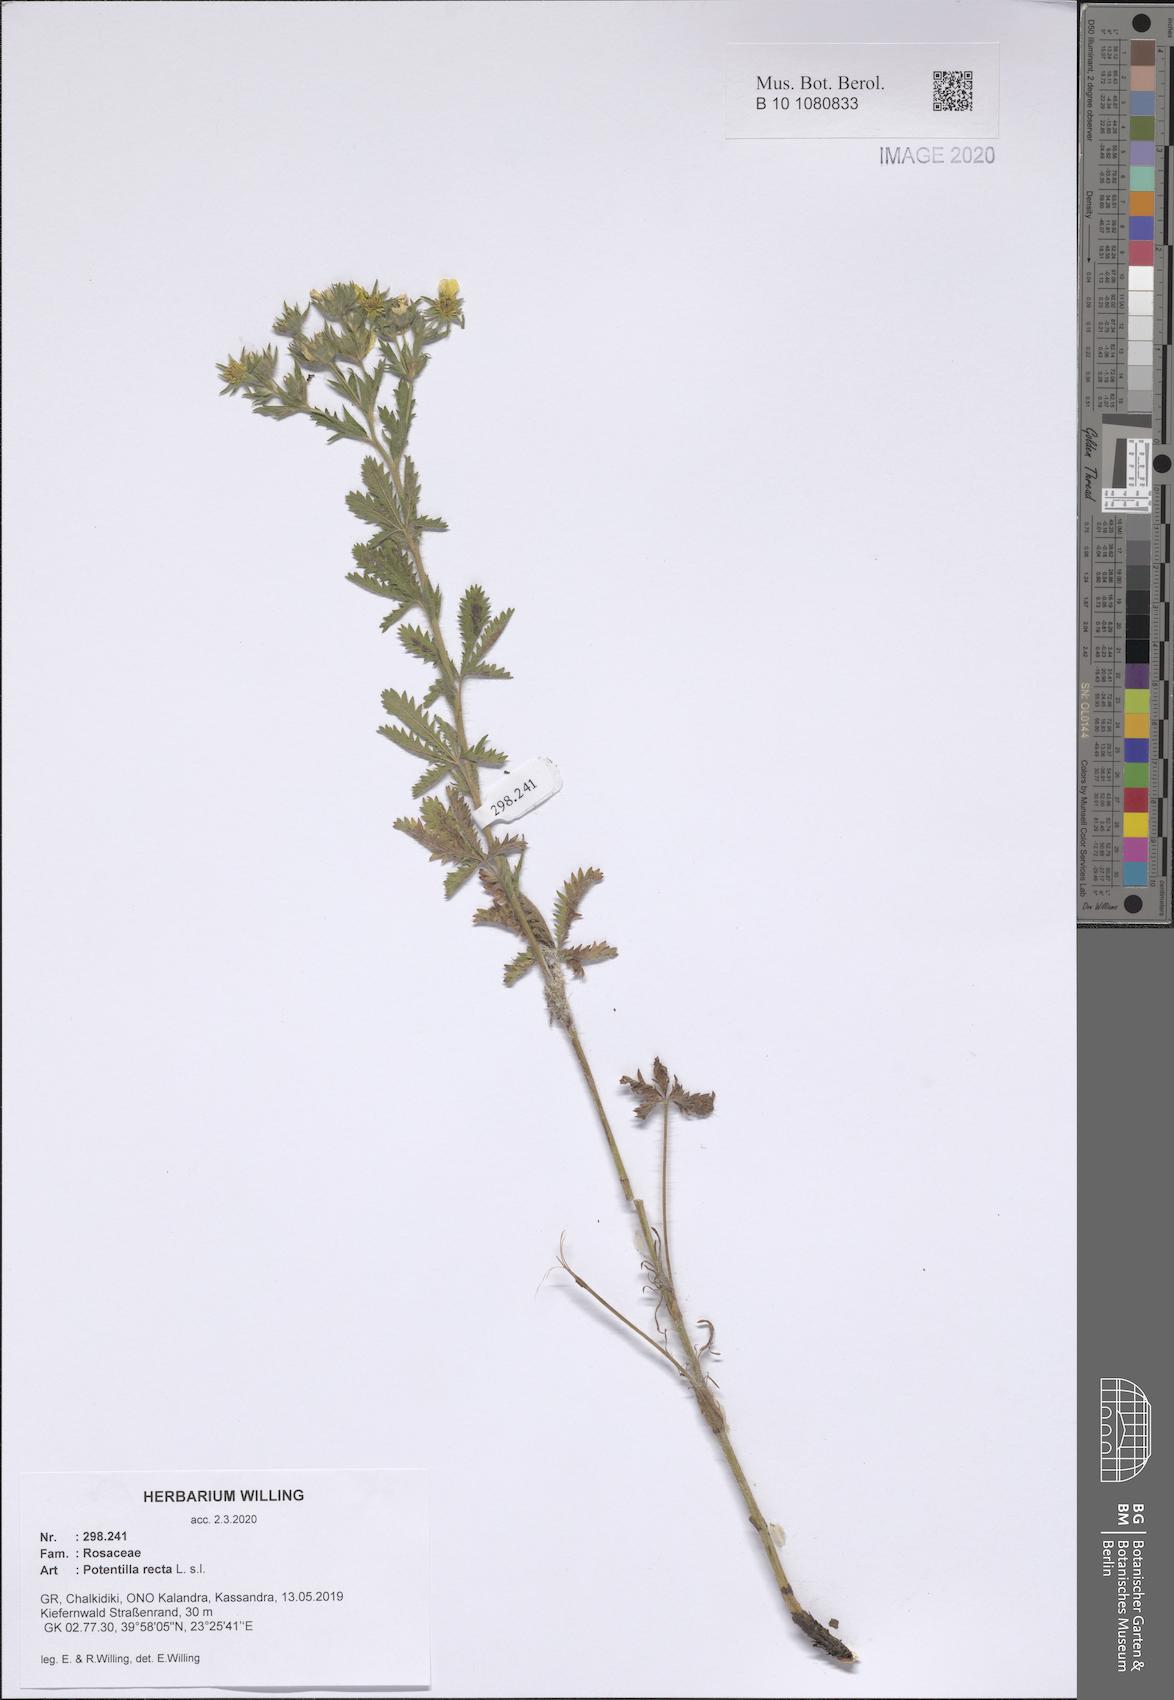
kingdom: Plantae
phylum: Tracheophyta
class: Magnoliopsida
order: Rosales
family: Rosaceae
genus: Potentilla
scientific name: Potentilla recta
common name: Sulphur cinquefoil
